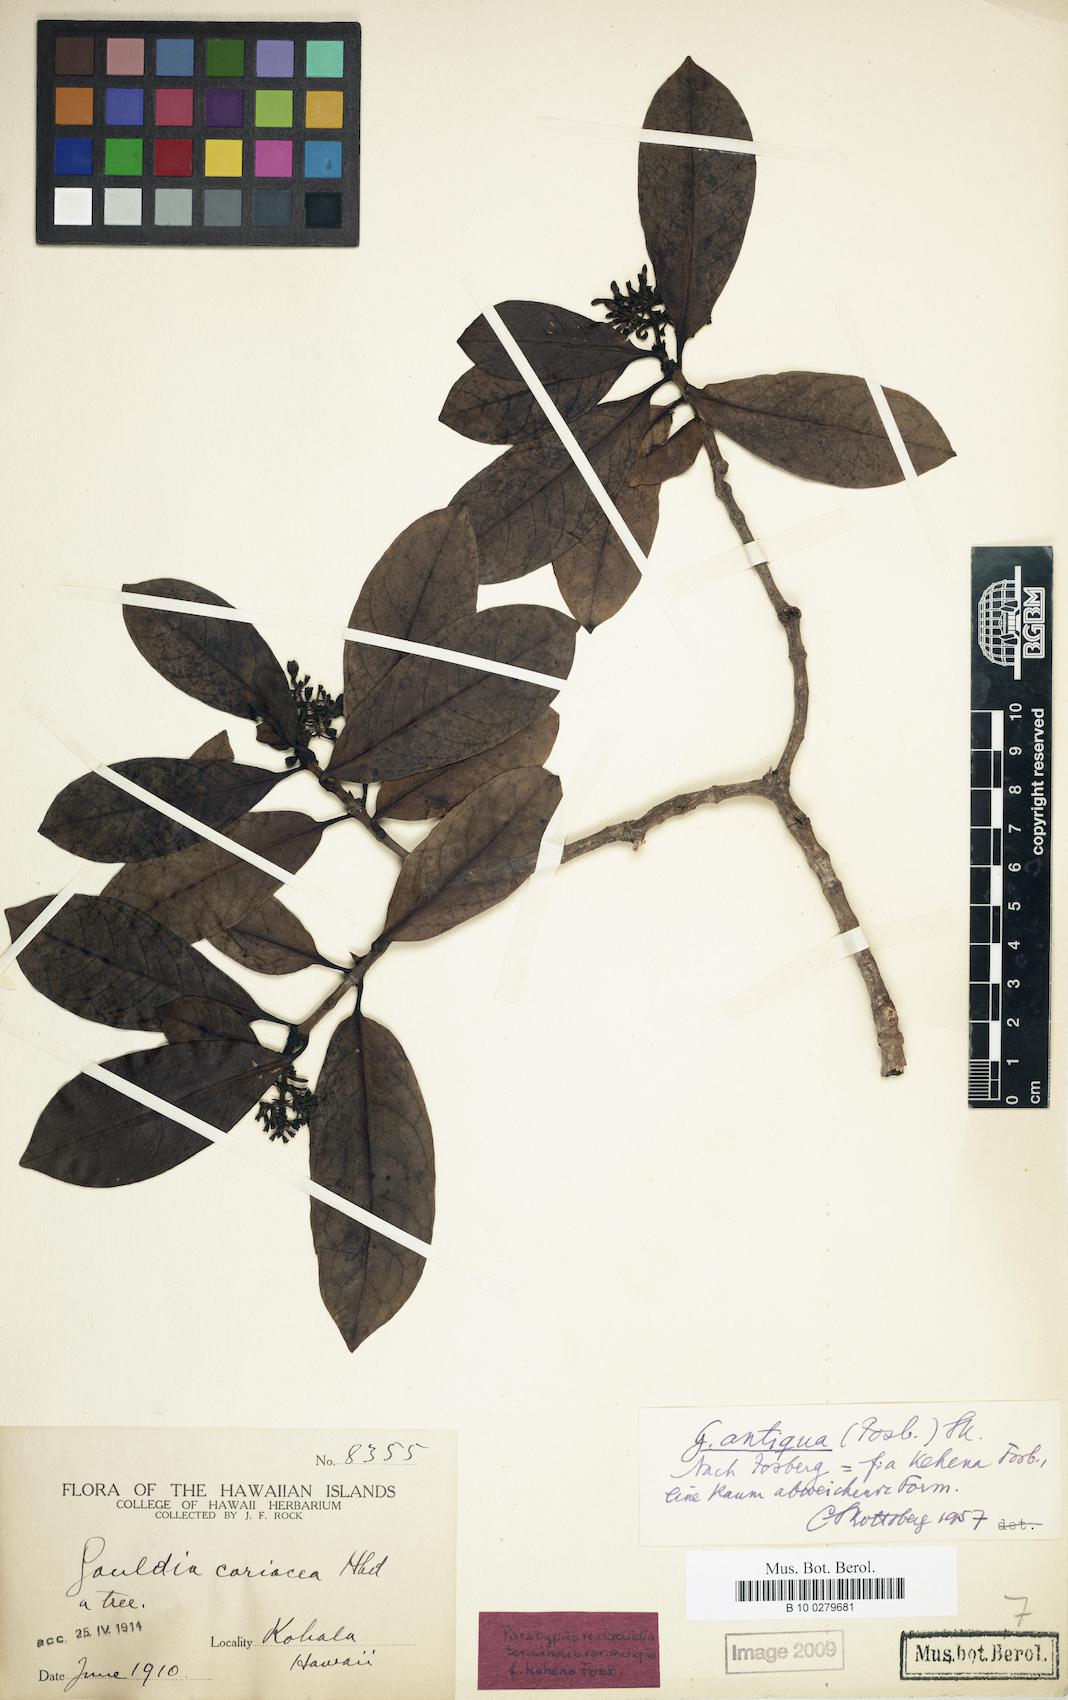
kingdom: Plantae
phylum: Tracheophyta
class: Magnoliopsida
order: Gentianales
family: Rubiaceae
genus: Kadua
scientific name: Kadua affinis
